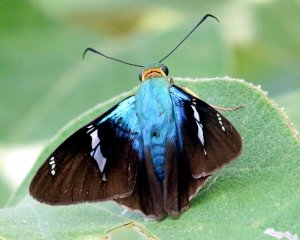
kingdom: Animalia
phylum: Arthropoda
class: Insecta
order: Lepidoptera
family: Hesperiidae
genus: Astraptes
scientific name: Astraptes fulgerator
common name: Two-barred Flasher
